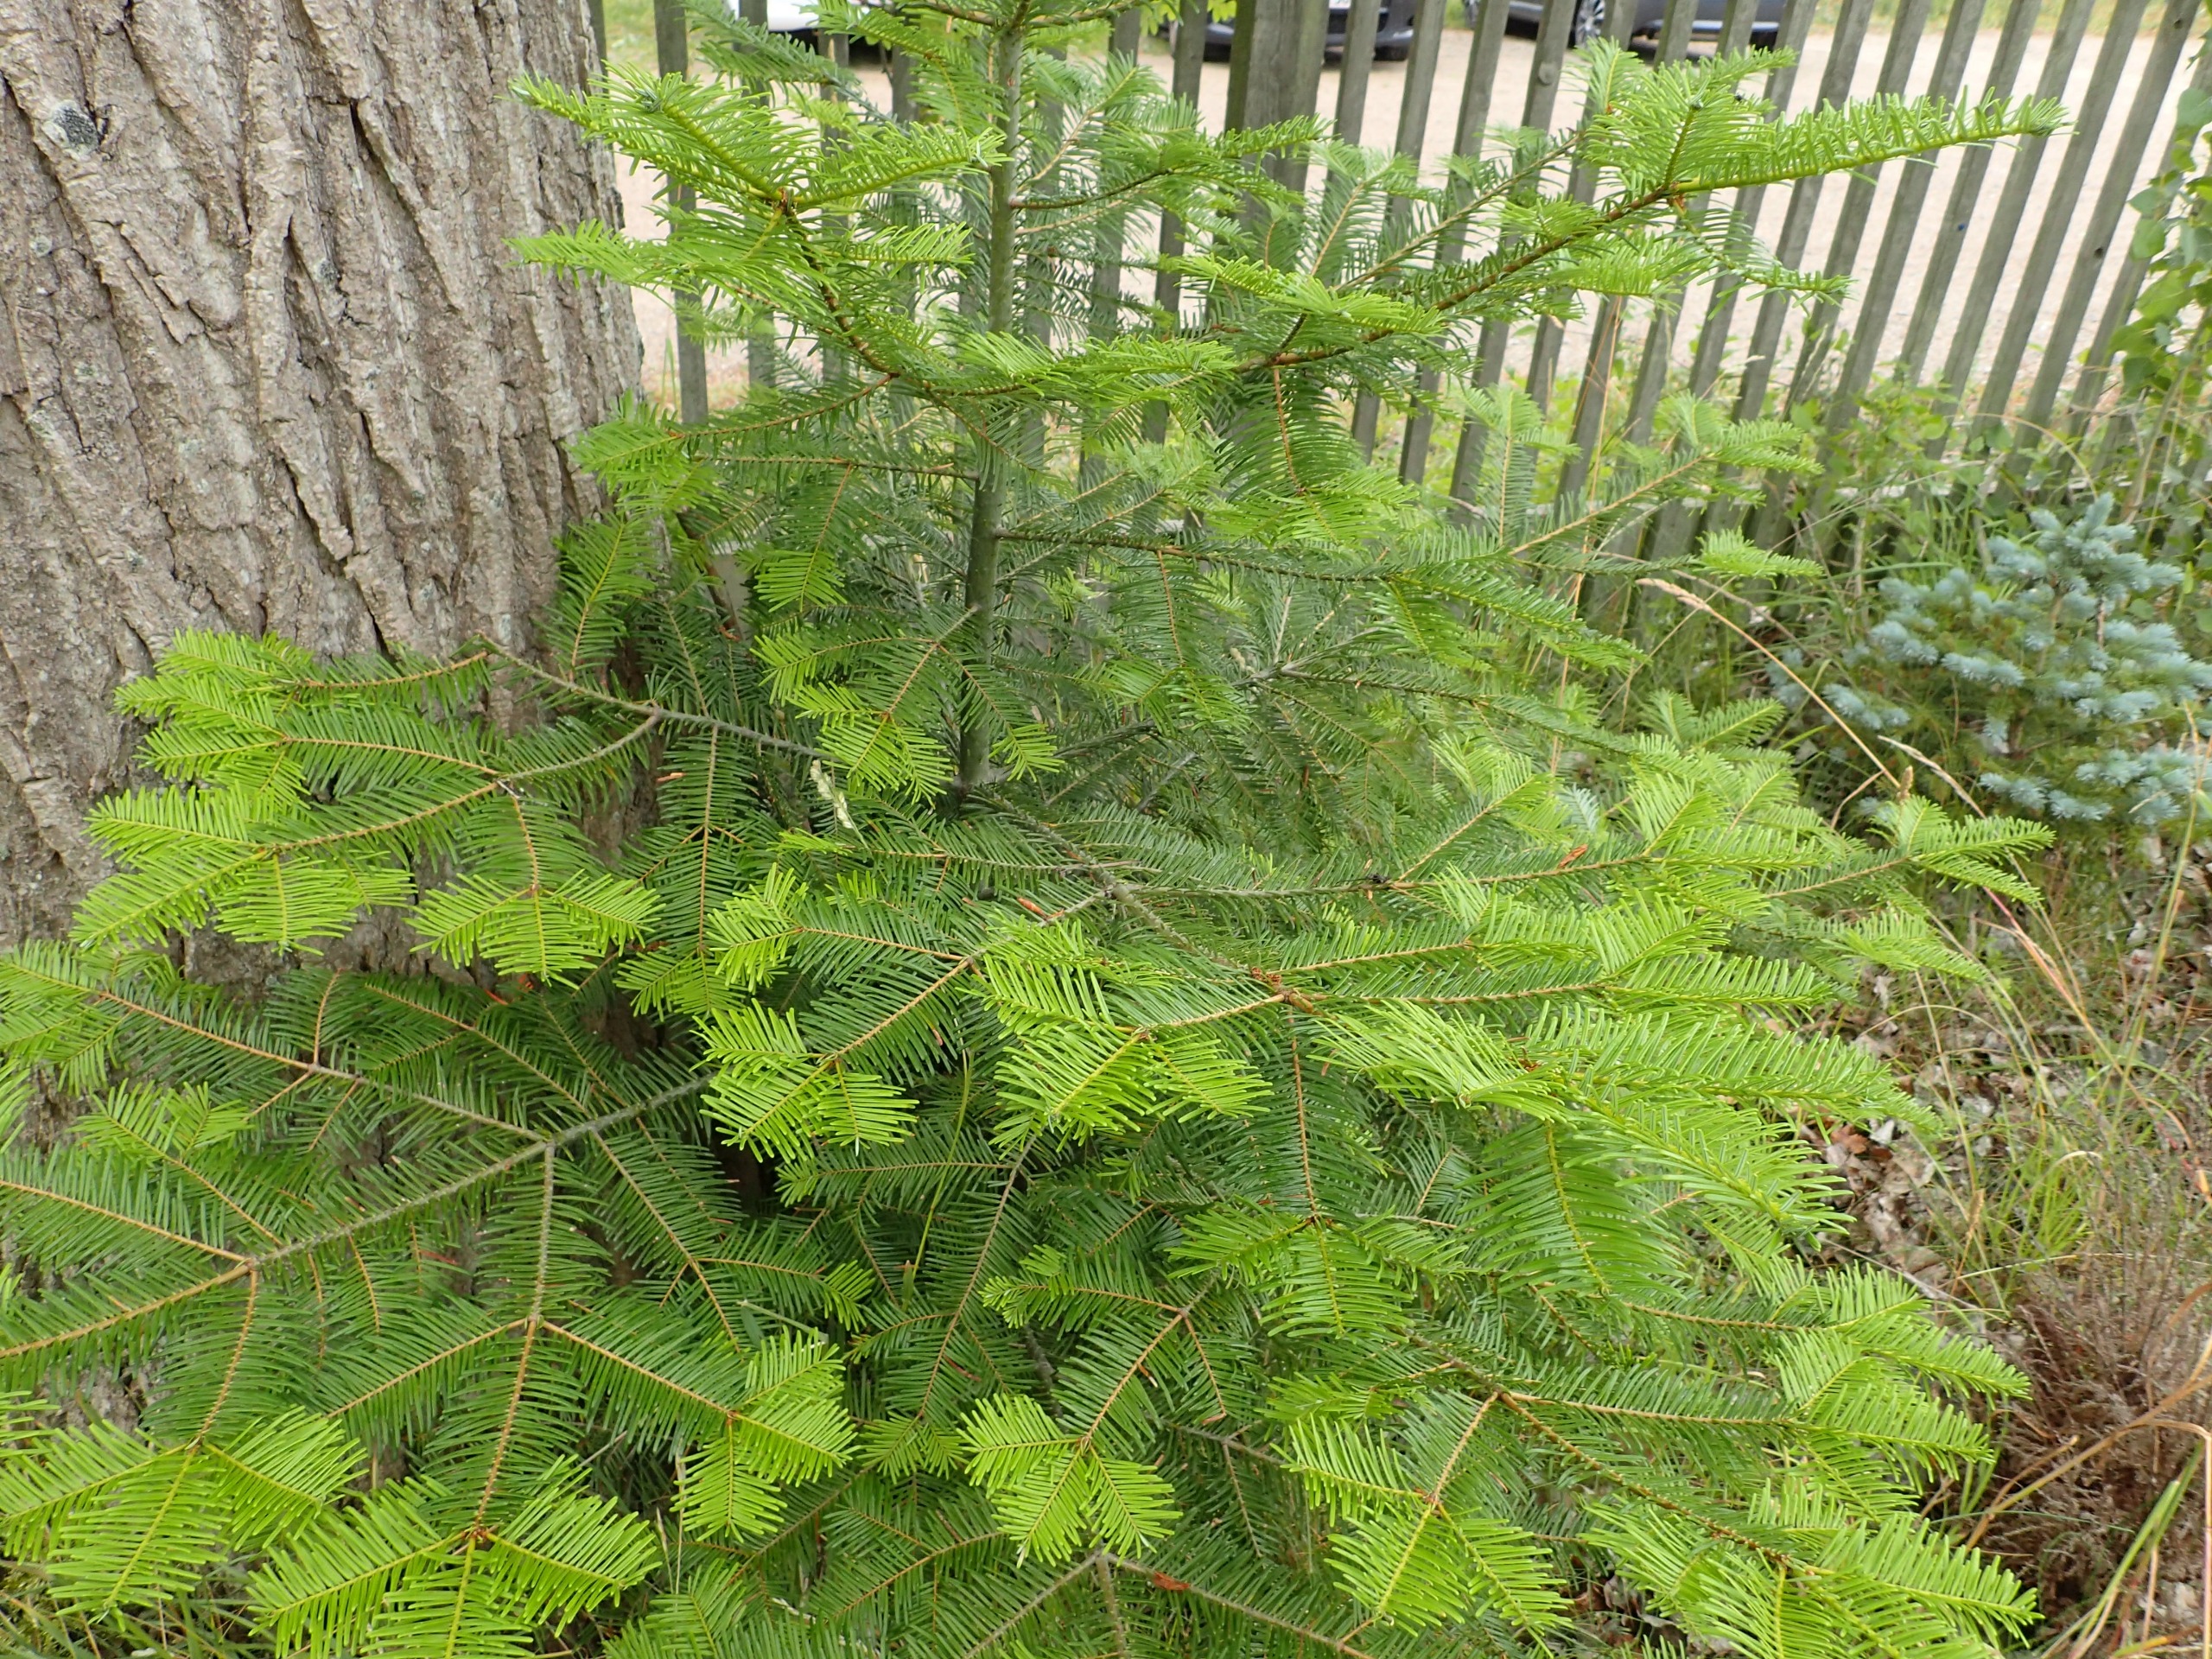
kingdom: Plantae
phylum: Tracheophyta
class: Pinopsida
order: Pinales
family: Pinaceae
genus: Abies
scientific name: Abies grandis
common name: Kæmpegran
